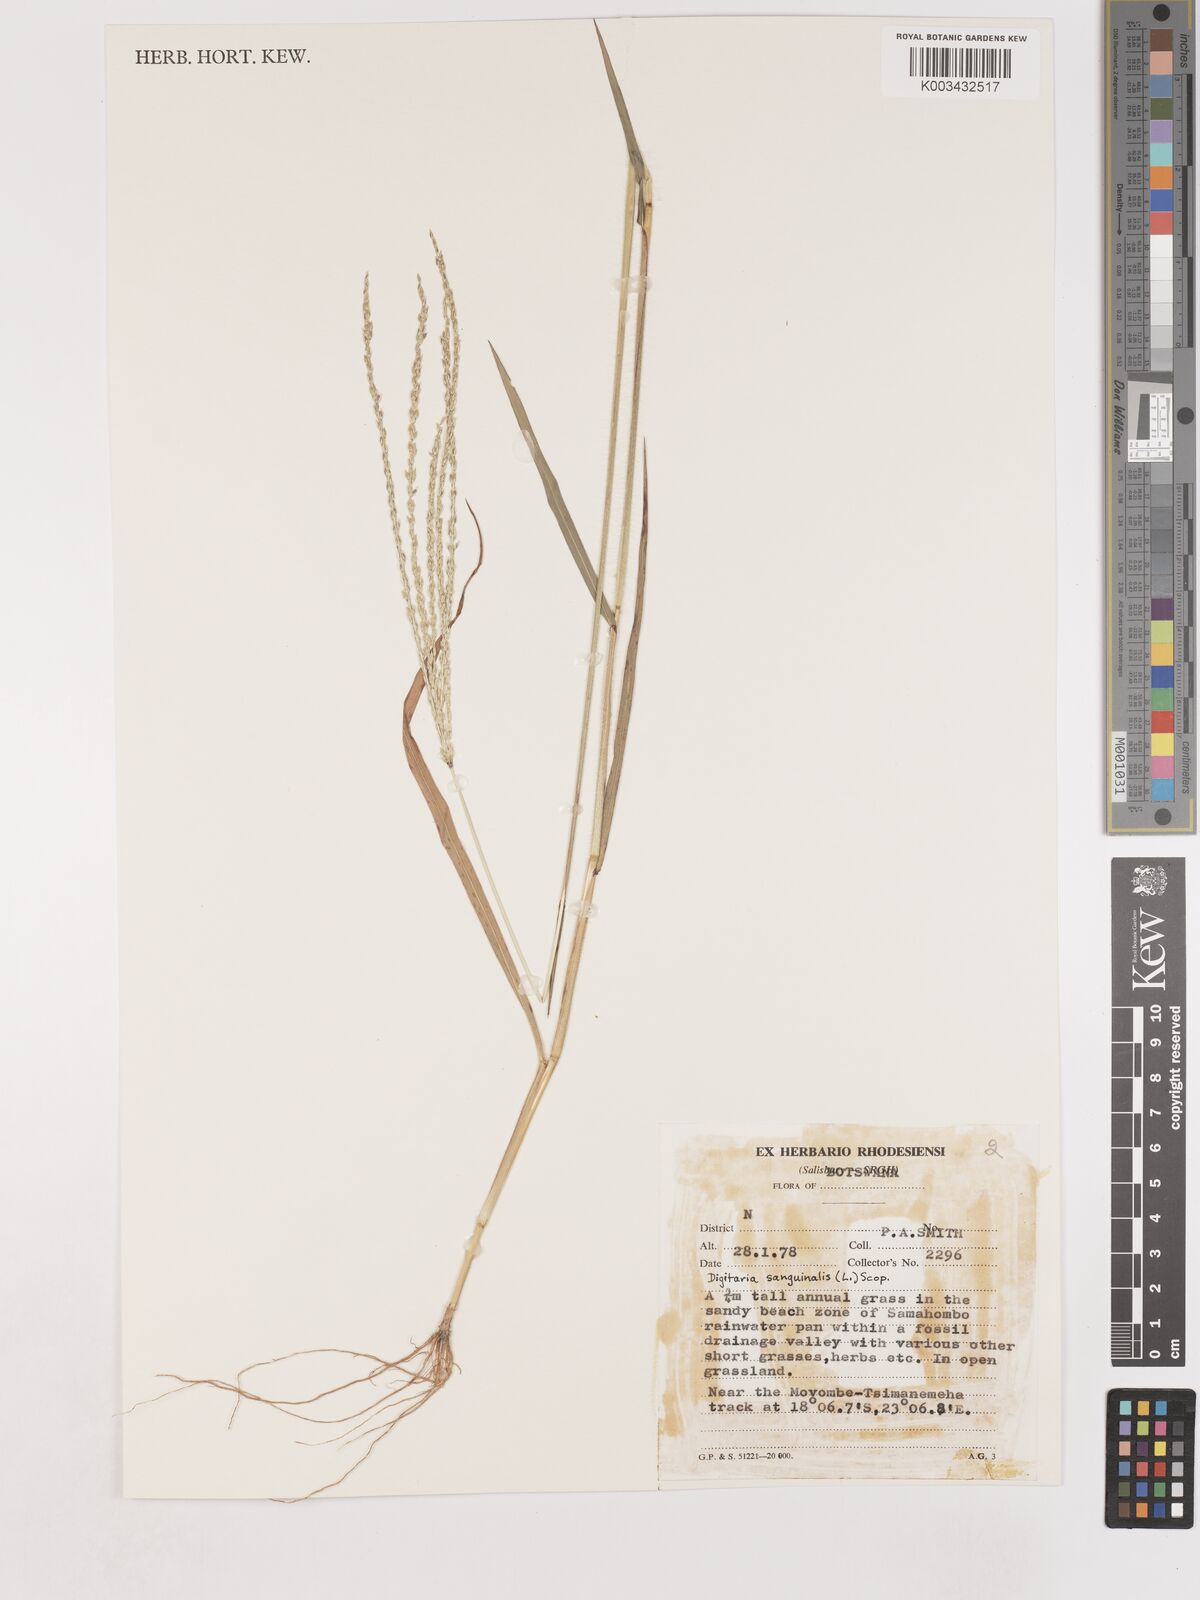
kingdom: Plantae
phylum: Tracheophyta
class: Liliopsida
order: Poales
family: Poaceae
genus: Digitaria
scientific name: Digitaria sanguinalis
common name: Hairy crabgrass
